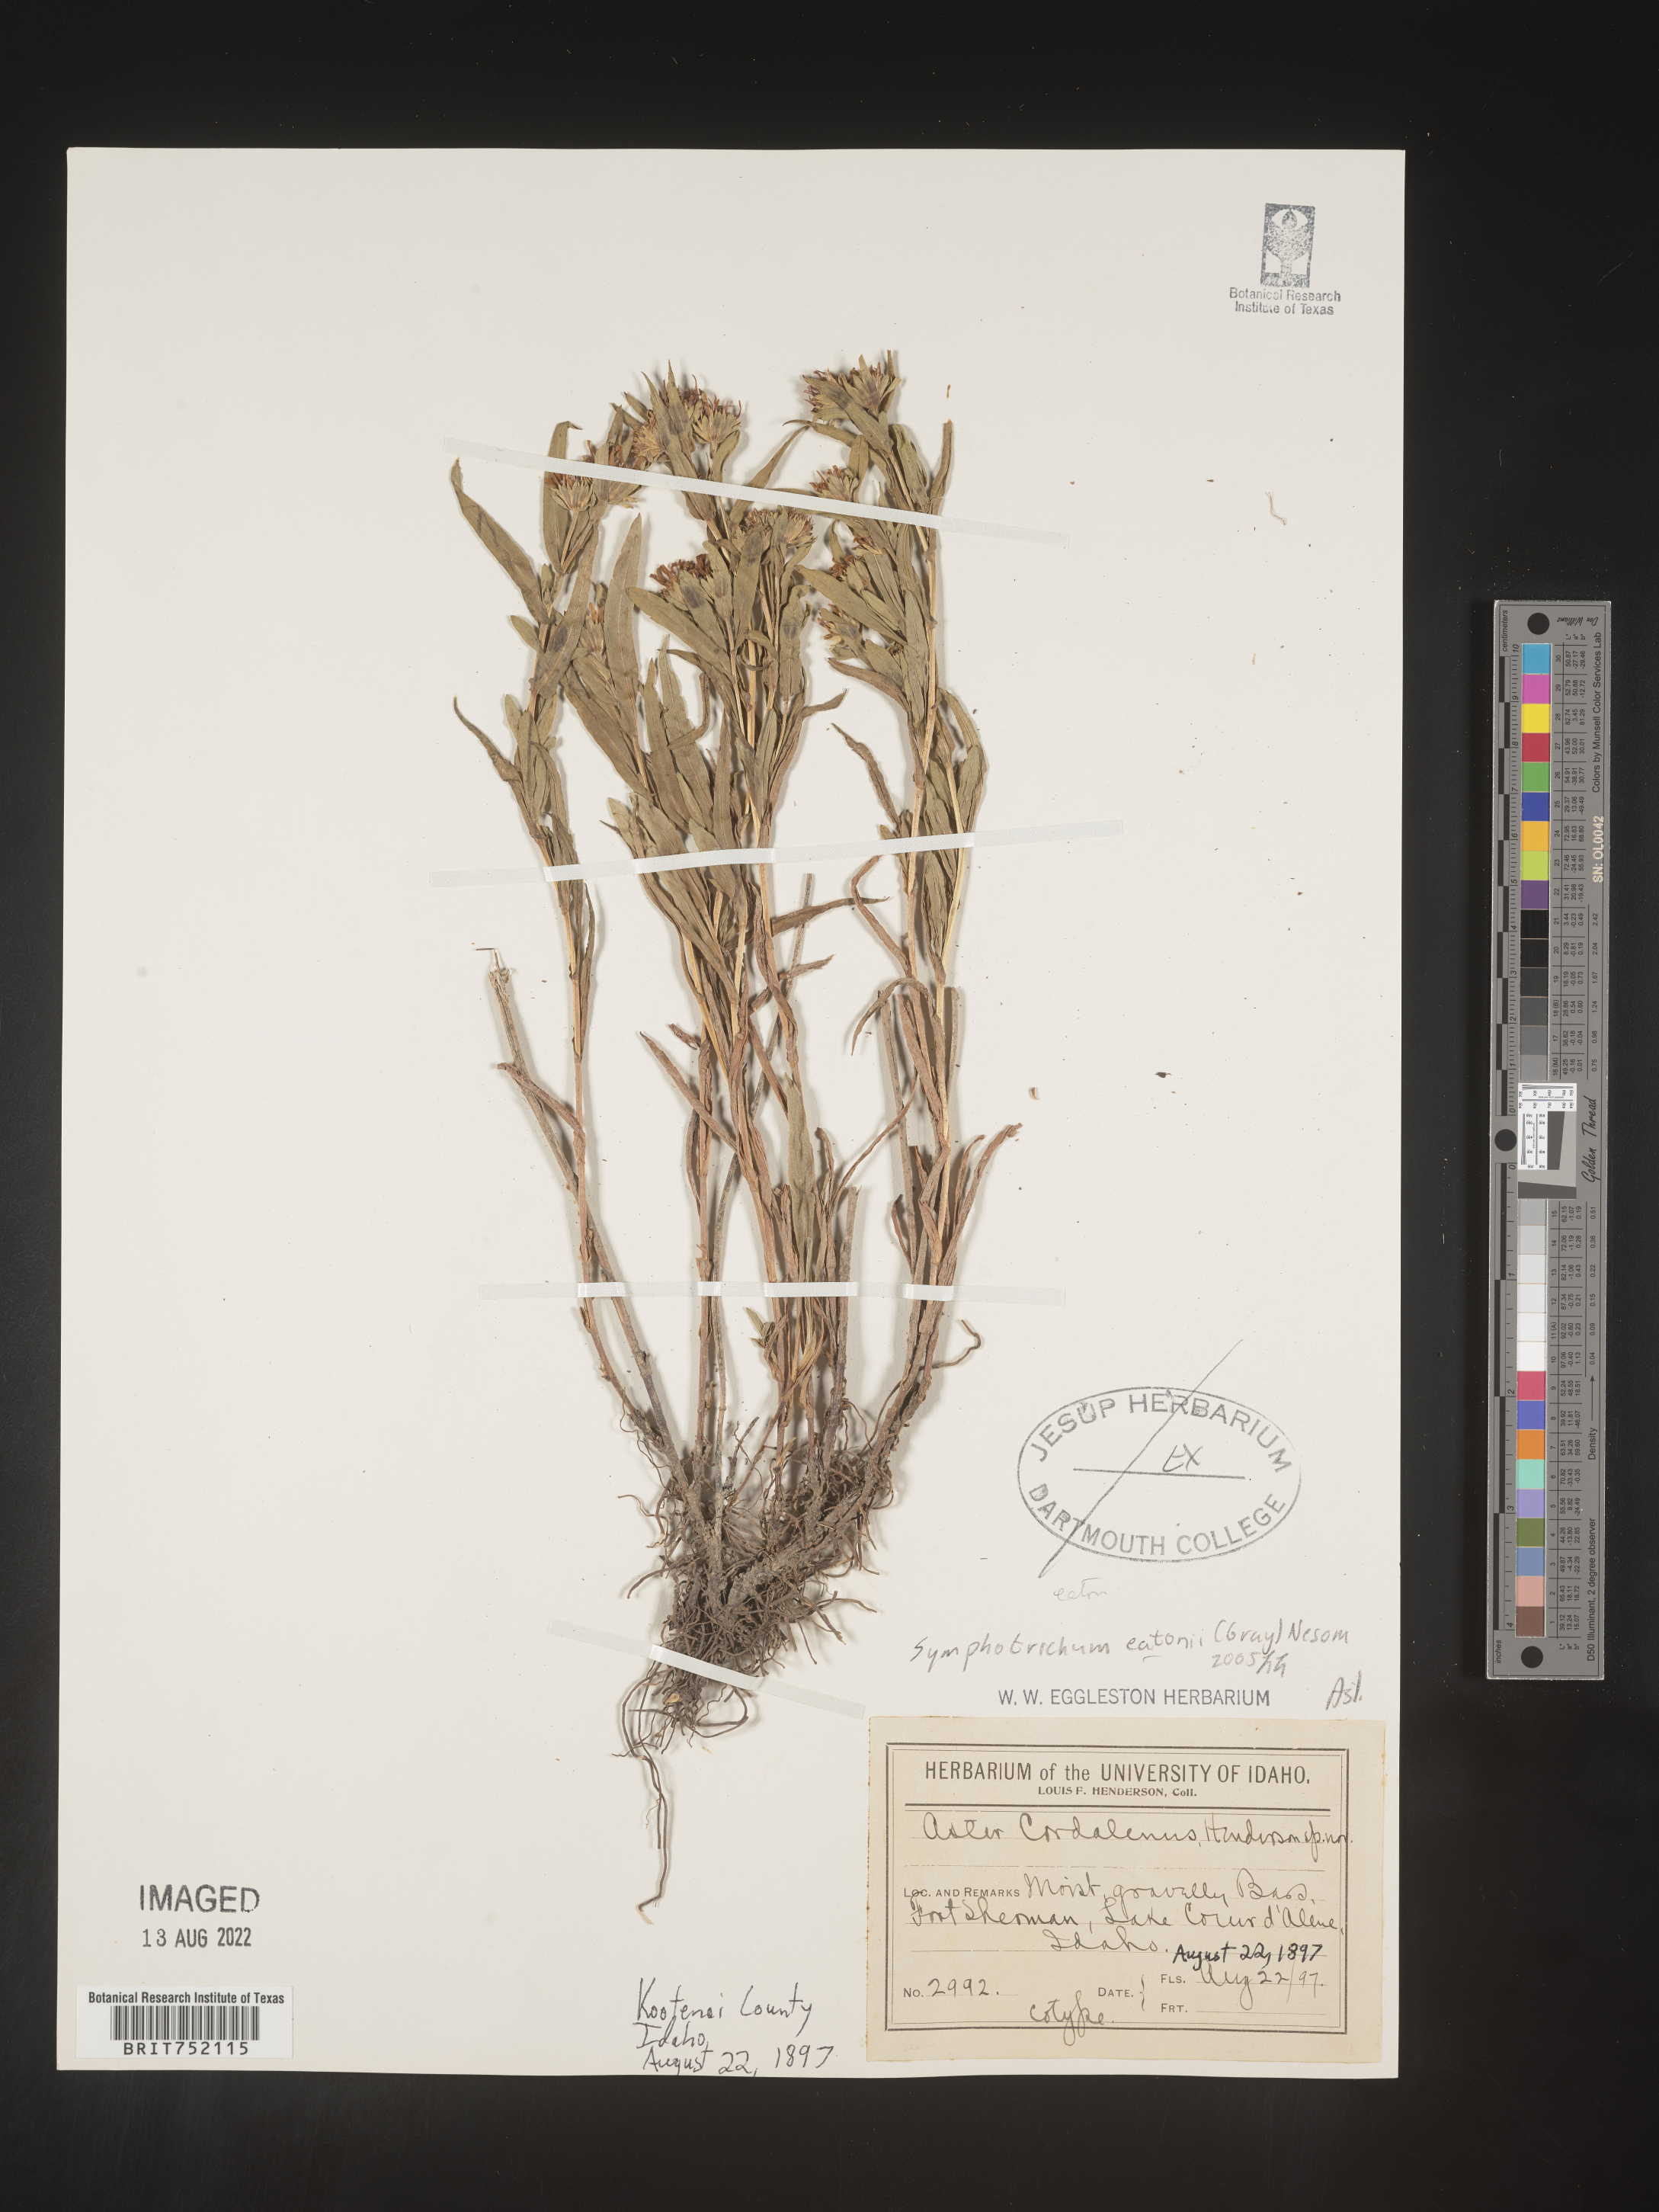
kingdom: Plantae
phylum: Tracheophyta
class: Magnoliopsida
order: Asterales
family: Asteraceae
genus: Symphyotrichum
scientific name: Symphyotrichum bracteolatum
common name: Eaton's aster
